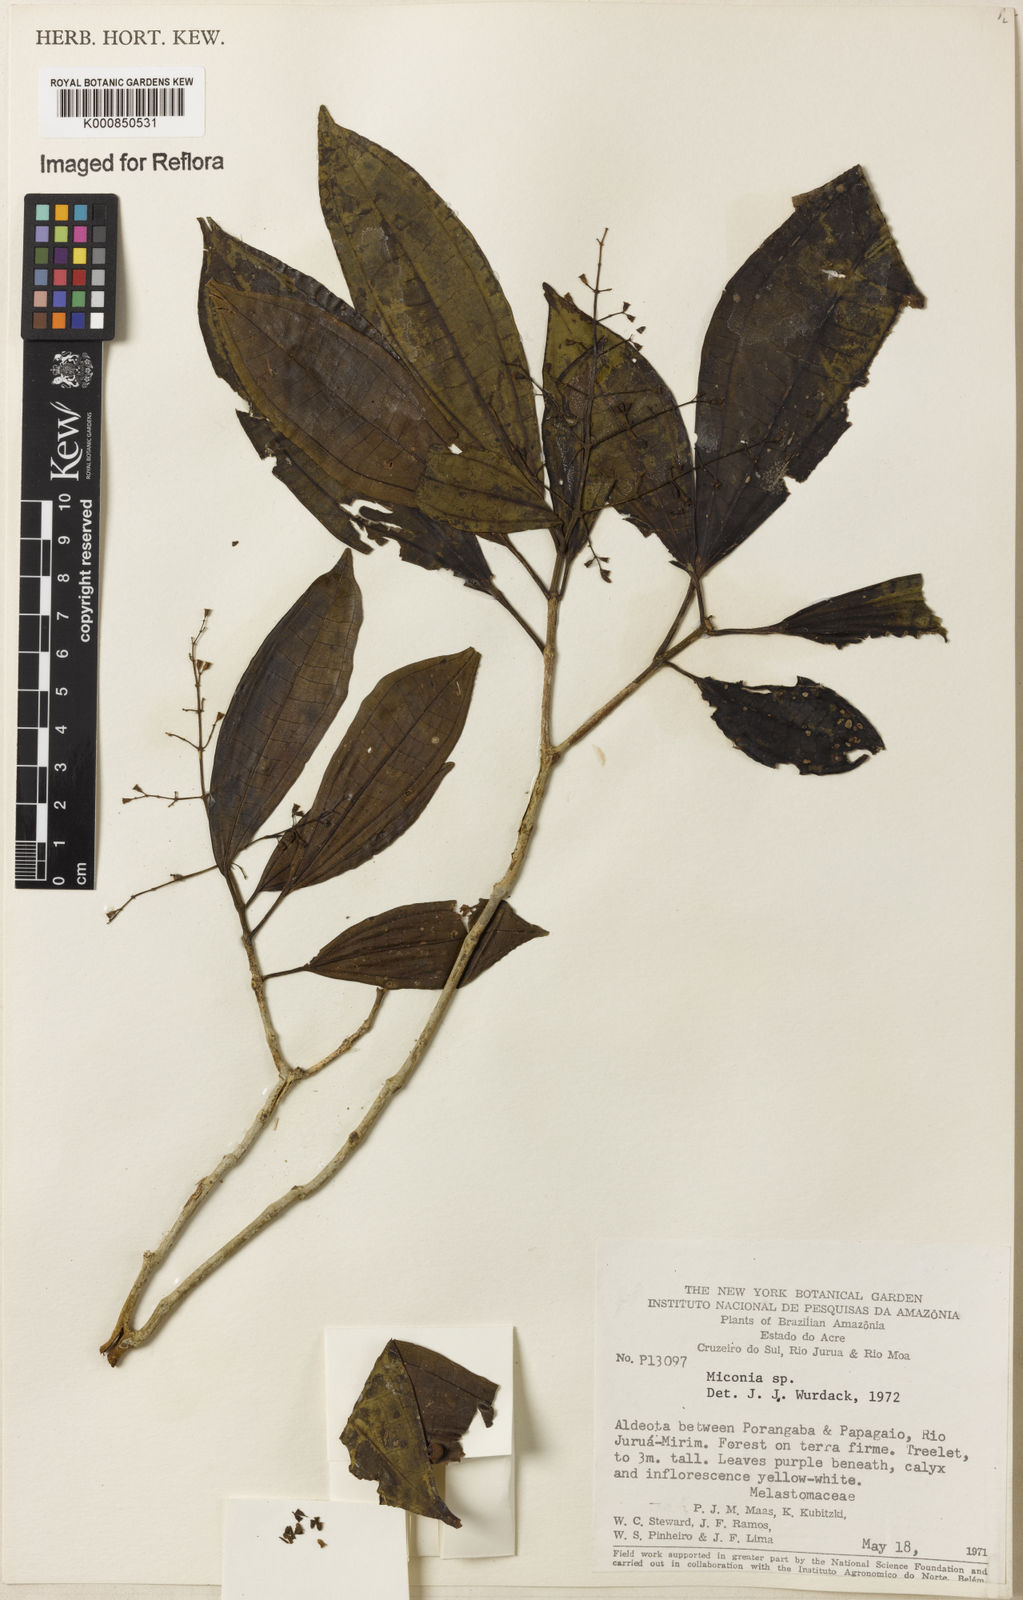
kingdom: Plantae
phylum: Tracheophyta
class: Magnoliopsida
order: Myrtales
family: Melastomataceae
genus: Miconia
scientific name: Miconia
